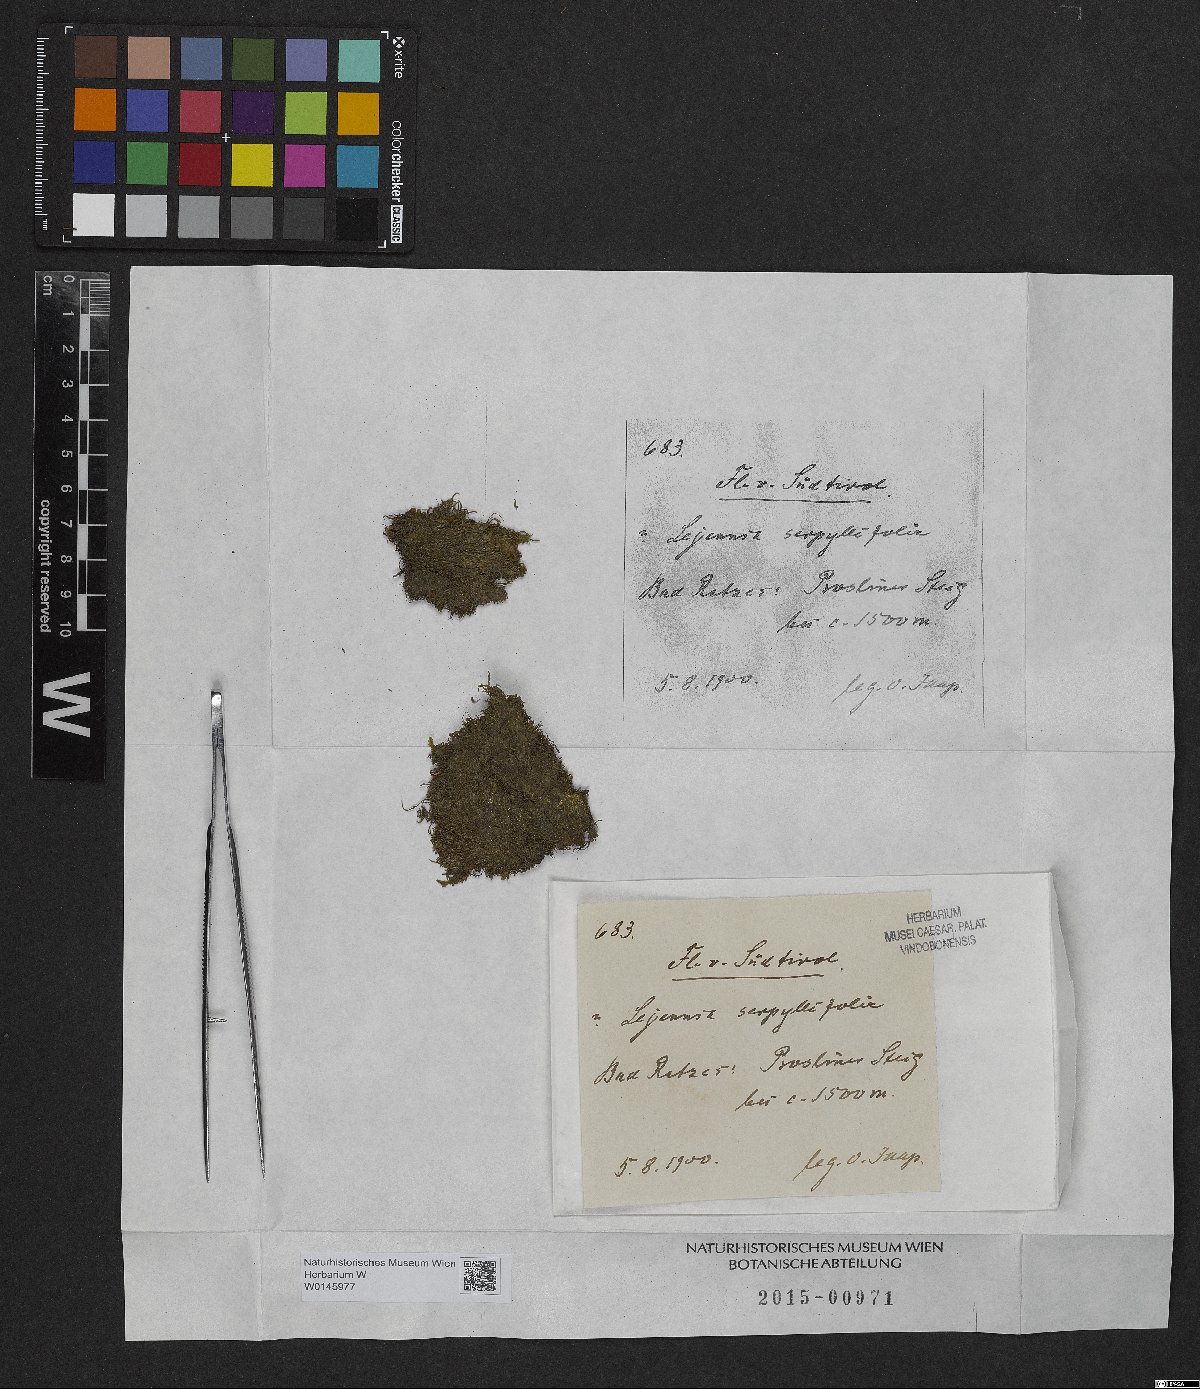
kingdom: Plantae
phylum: Marchantiophyta
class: Jungermanniopsida
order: Porellales
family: Lejeuneaceae
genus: Lejeunea
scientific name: Lejeunea patens
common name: Pearl pouncewort
